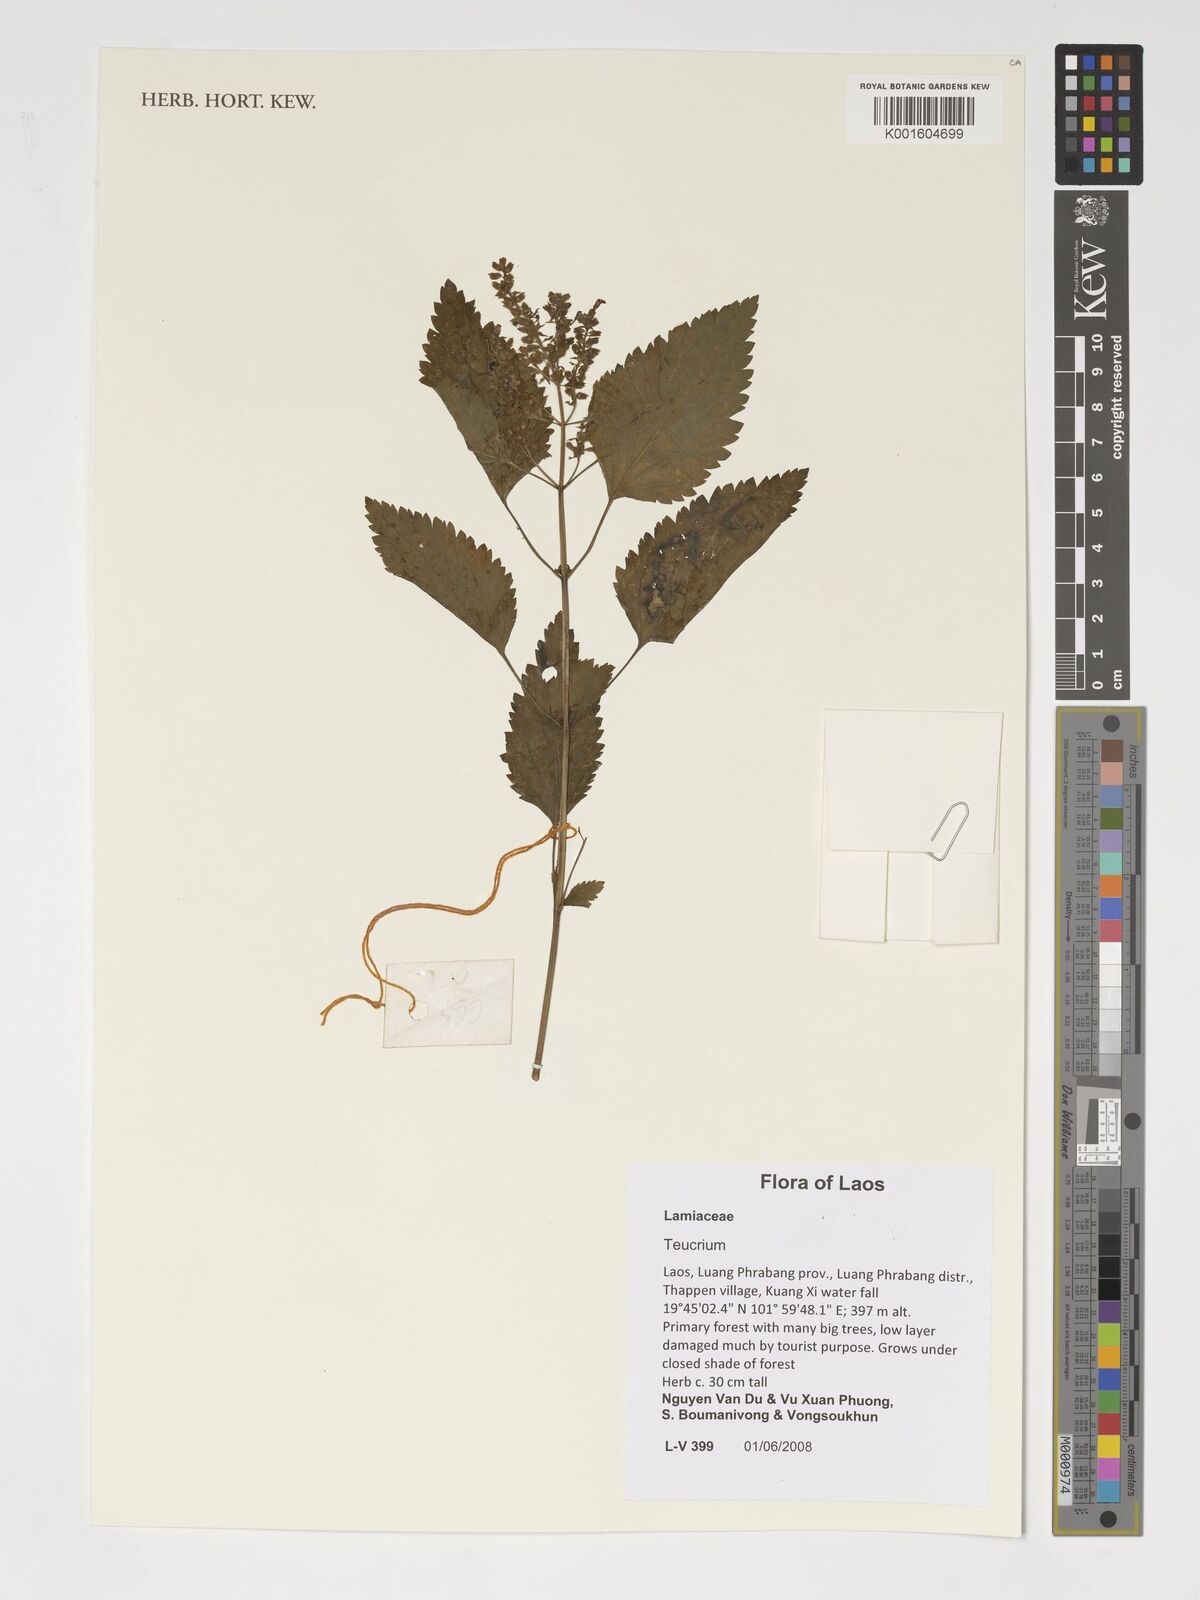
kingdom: Plantae
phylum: Tracheophyta
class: Magnoliopsida
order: Lamiales
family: Lamiaceae
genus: Teucrium
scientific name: Teucrium
